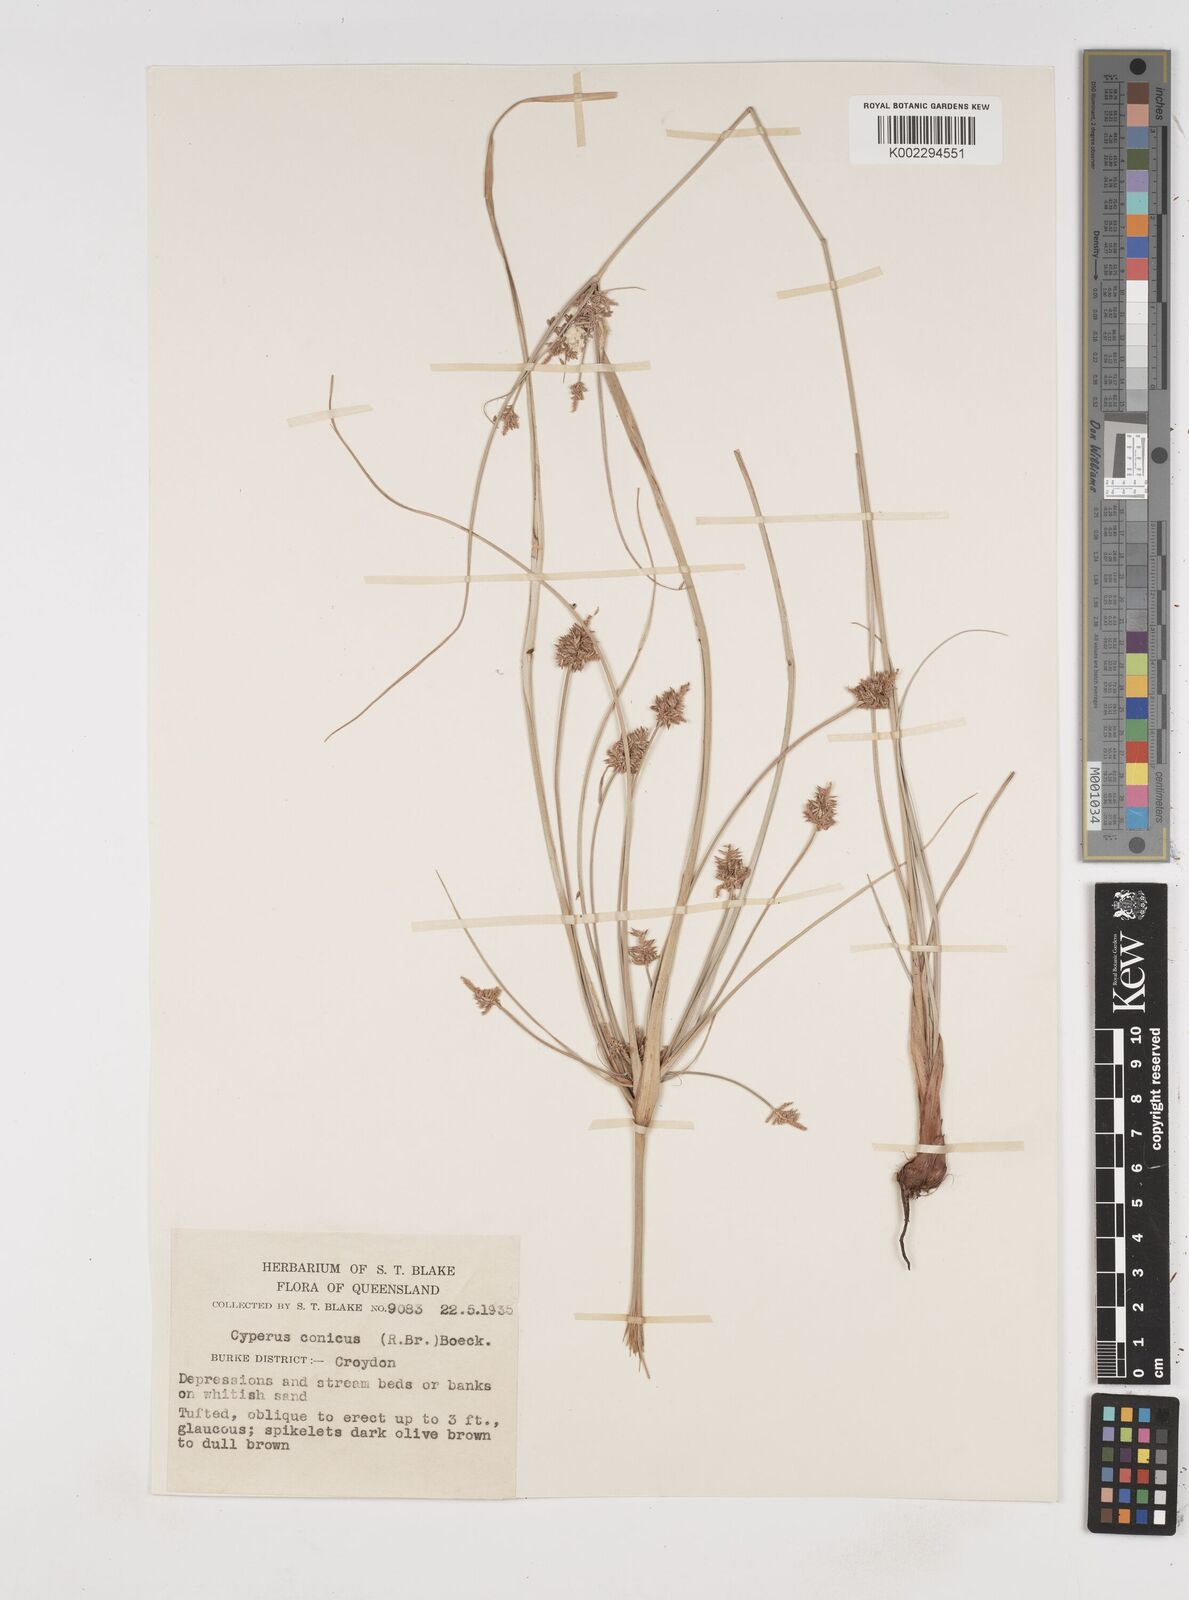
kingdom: Plantae
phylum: Tracheophyta
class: Liliopsida
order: Poales
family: Cyperaceae
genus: Cyperus
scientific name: Cyperus conicus
